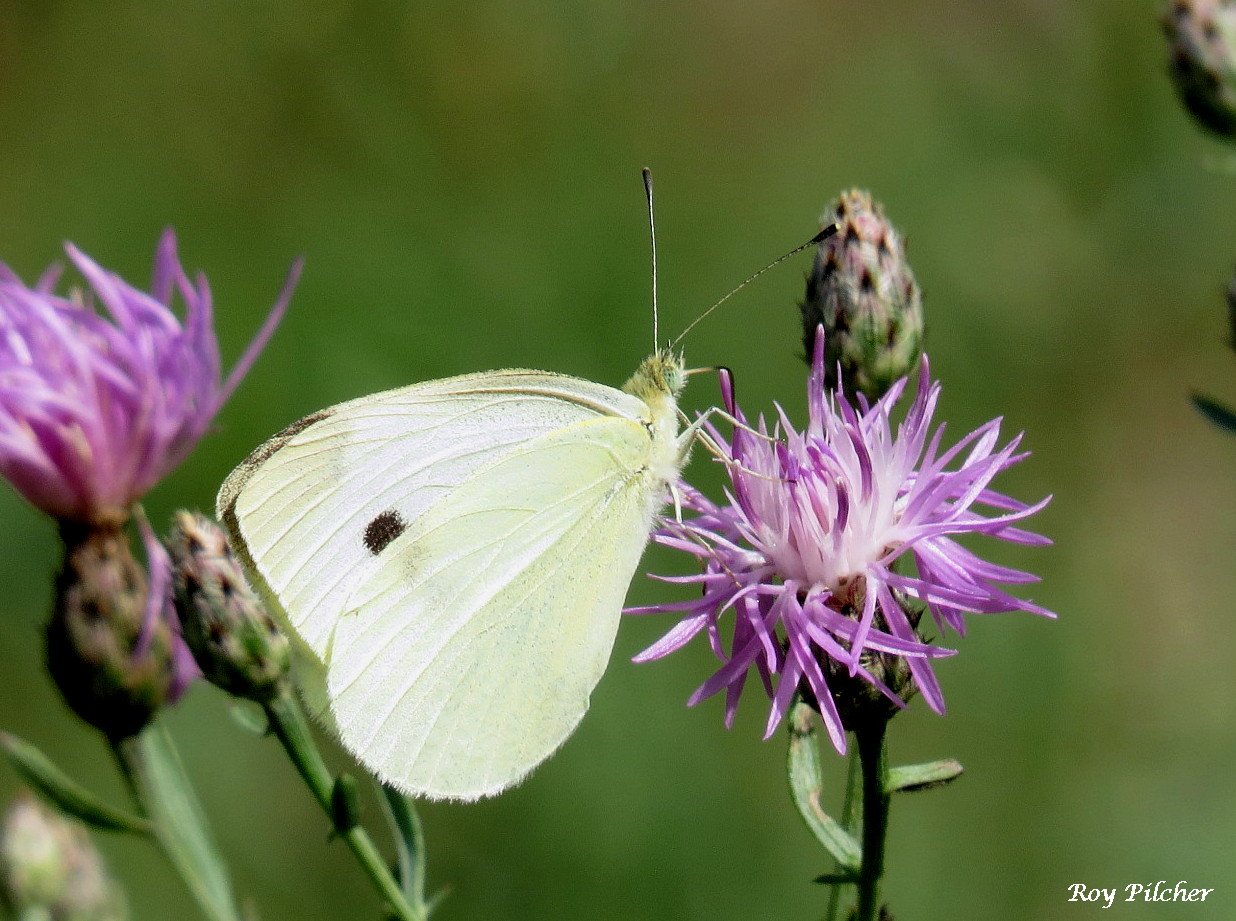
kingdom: Animalia
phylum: Arthropoda
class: Insecta
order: Lepidoptera
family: Pieridae
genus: Pieris
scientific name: Pieris rapae
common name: Cabbage White
